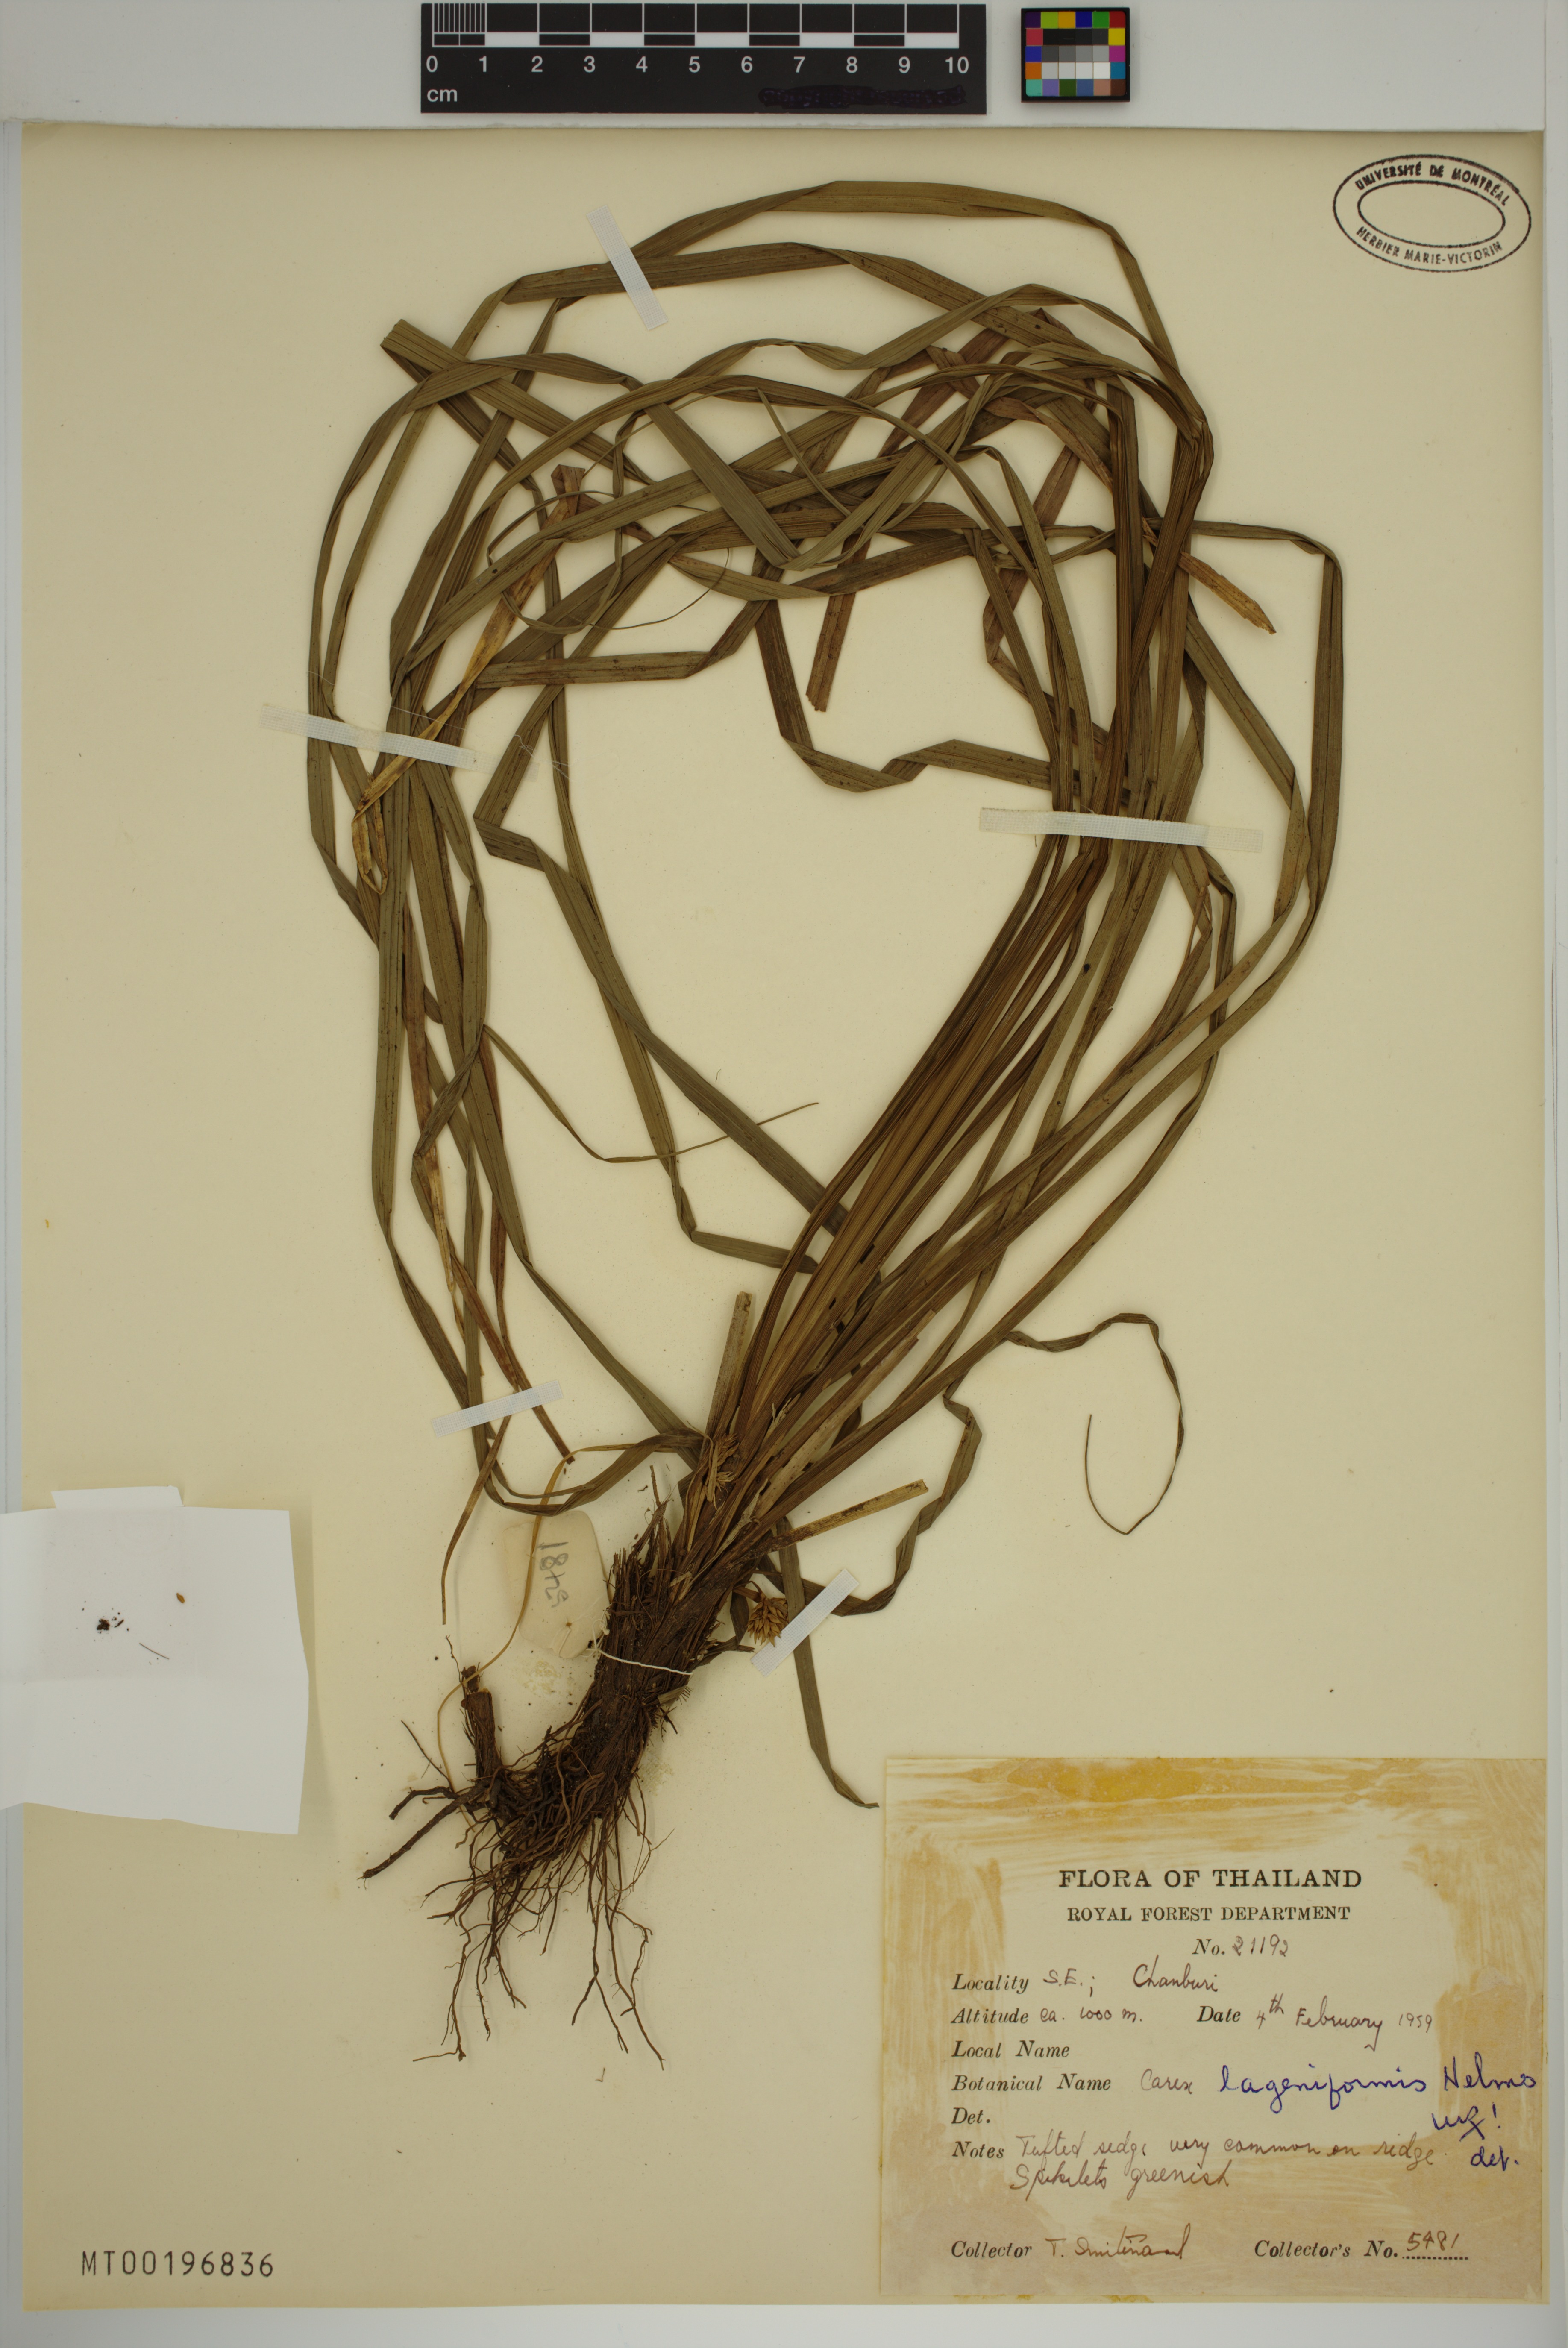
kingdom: Plantae
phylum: Tracheophyta
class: Liliopsida
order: Poales
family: Cyperaceae
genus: Carex
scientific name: Carex lageniformis
